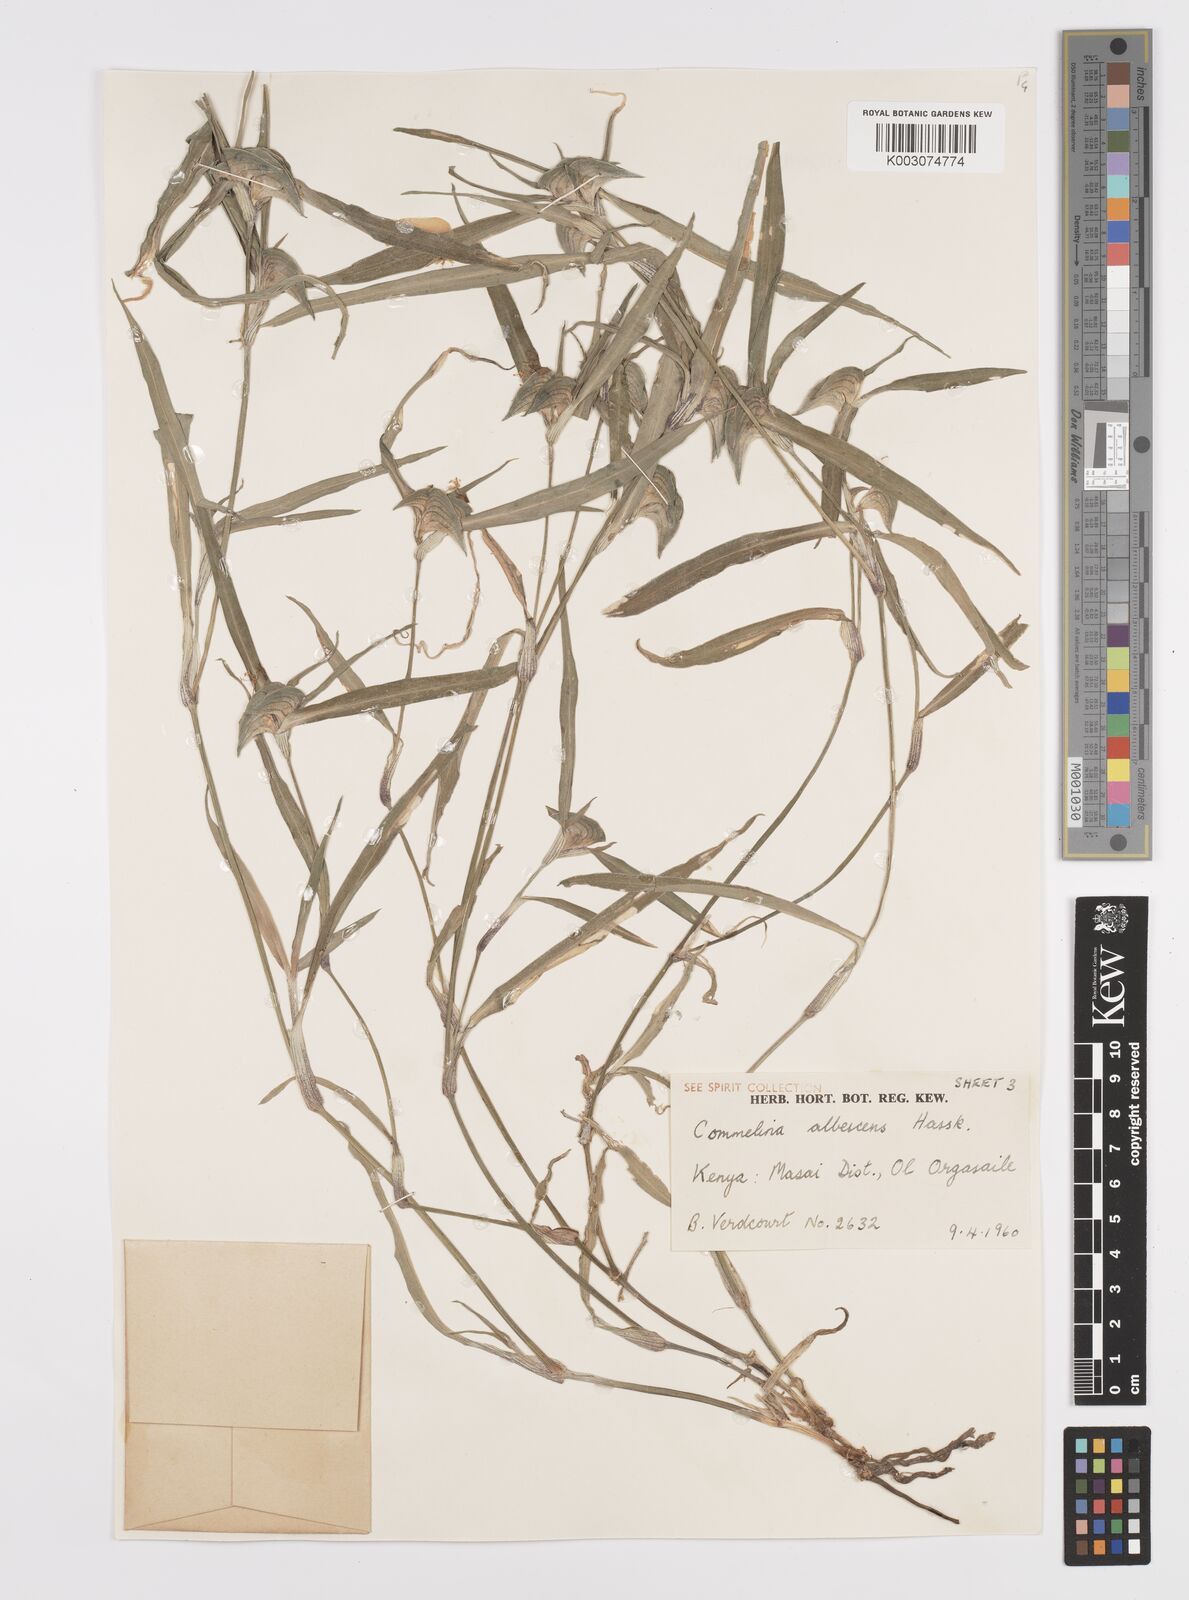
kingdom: Plantae
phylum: Tracheophyta
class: Liliopsida
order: Commelinales
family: Commelinaceae
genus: Commelina
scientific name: Commelina albescens
